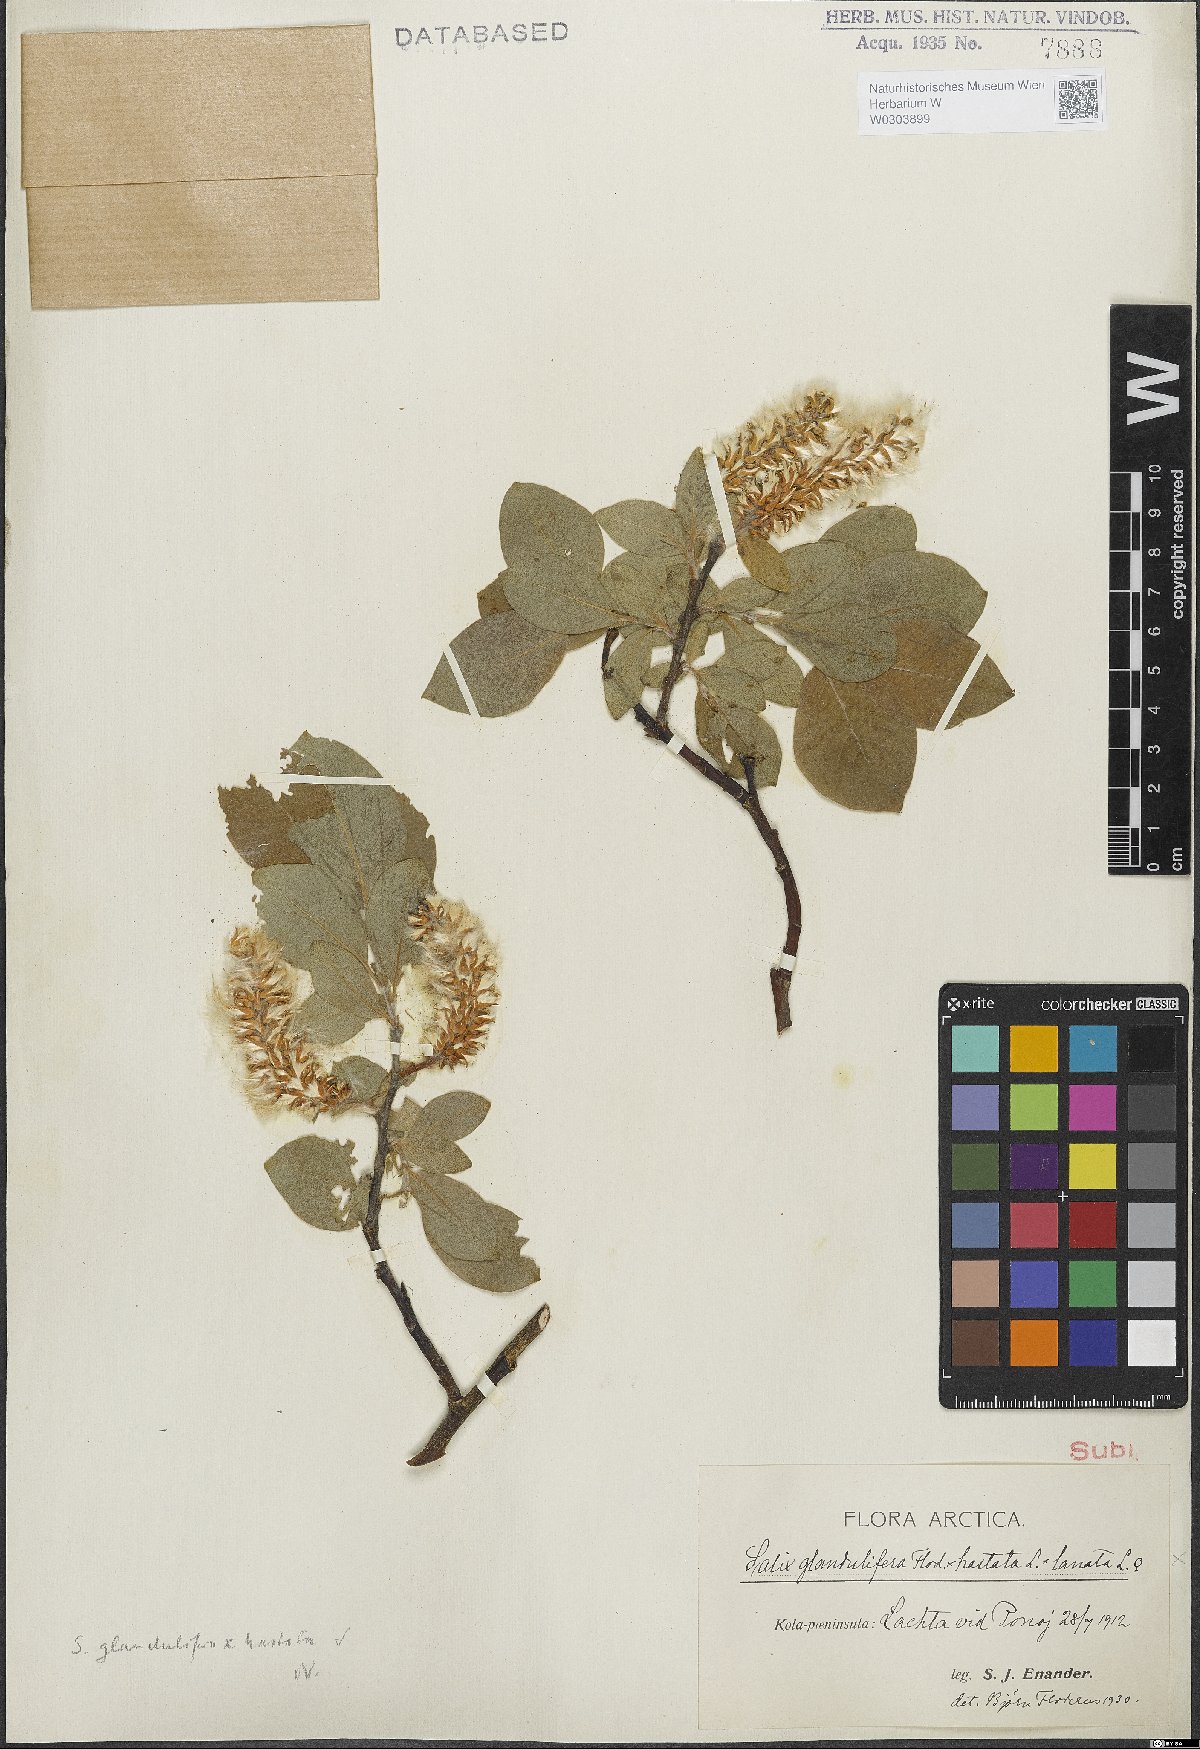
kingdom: Plantae
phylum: Tracheophyta
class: Magnoliopsida
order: Malpighiales
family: Salicaceae
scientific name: Salicaceae
